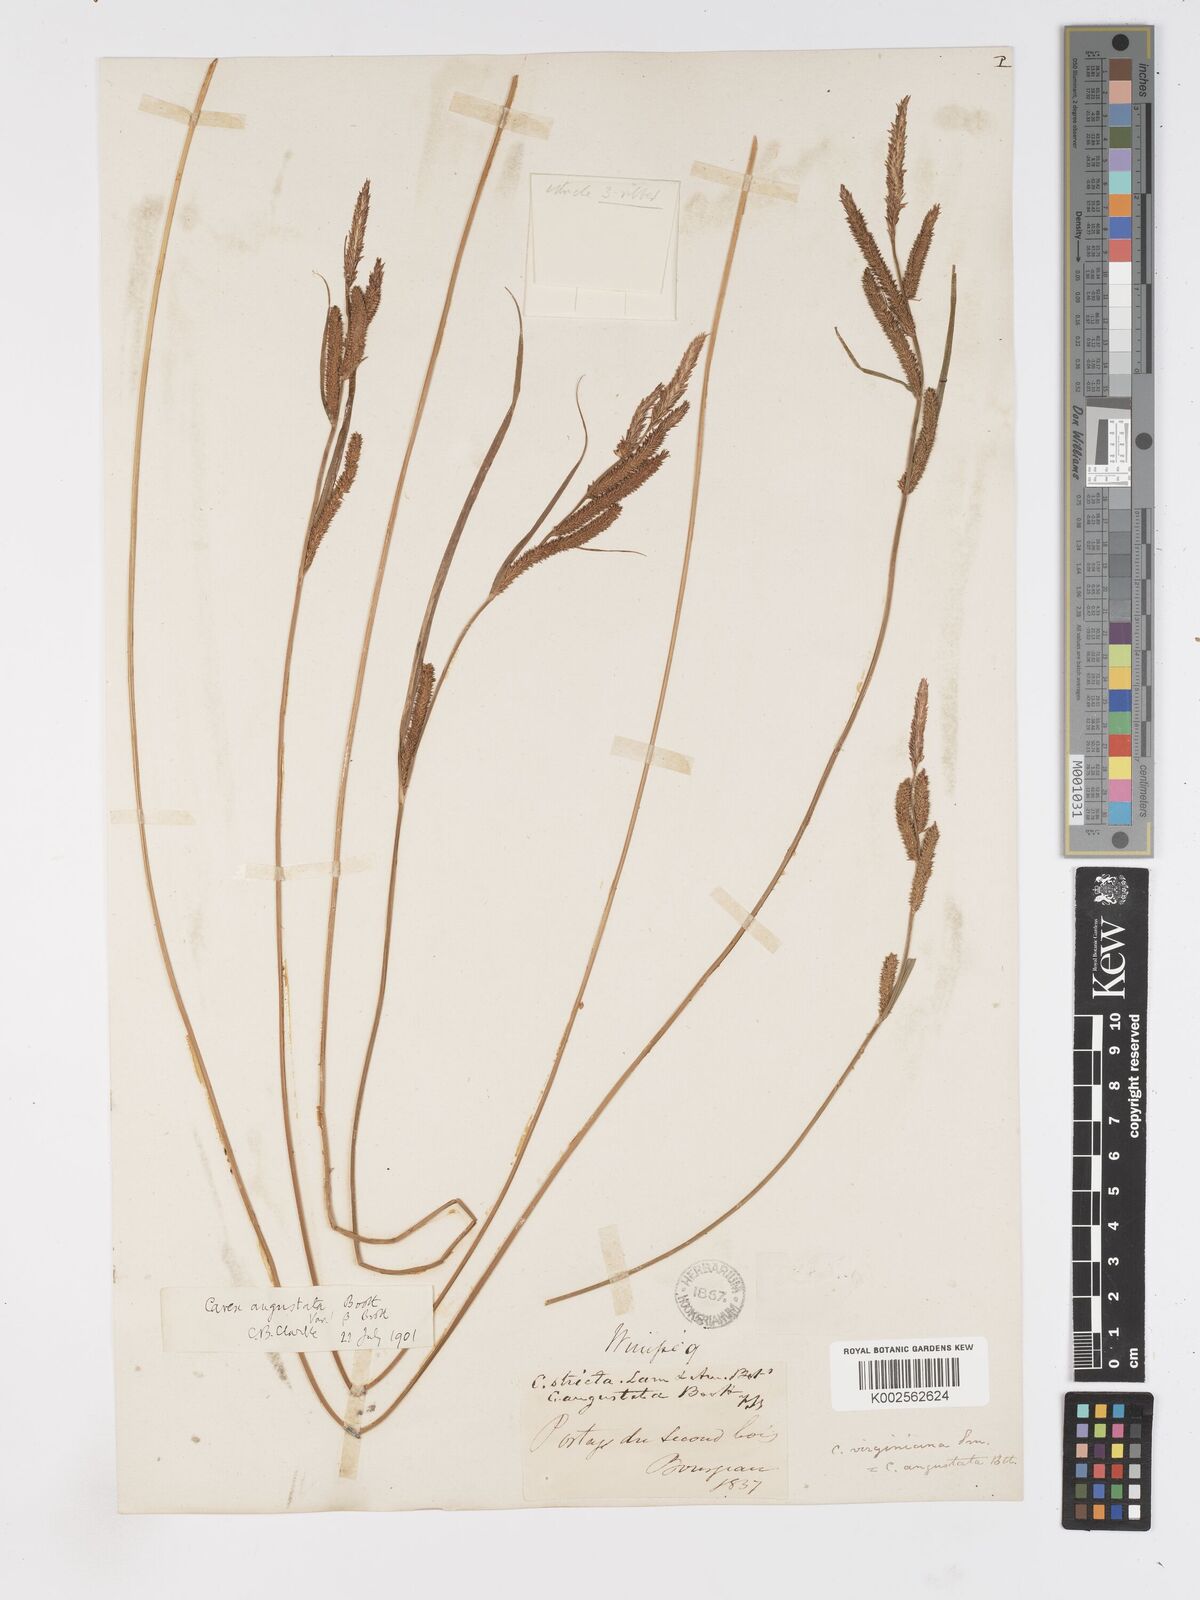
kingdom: Plantae
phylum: Tracheophyta
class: Liliopsida
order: Poales
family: Cyperaceae
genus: Carex
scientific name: Carex stricta
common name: Hummock sedge
